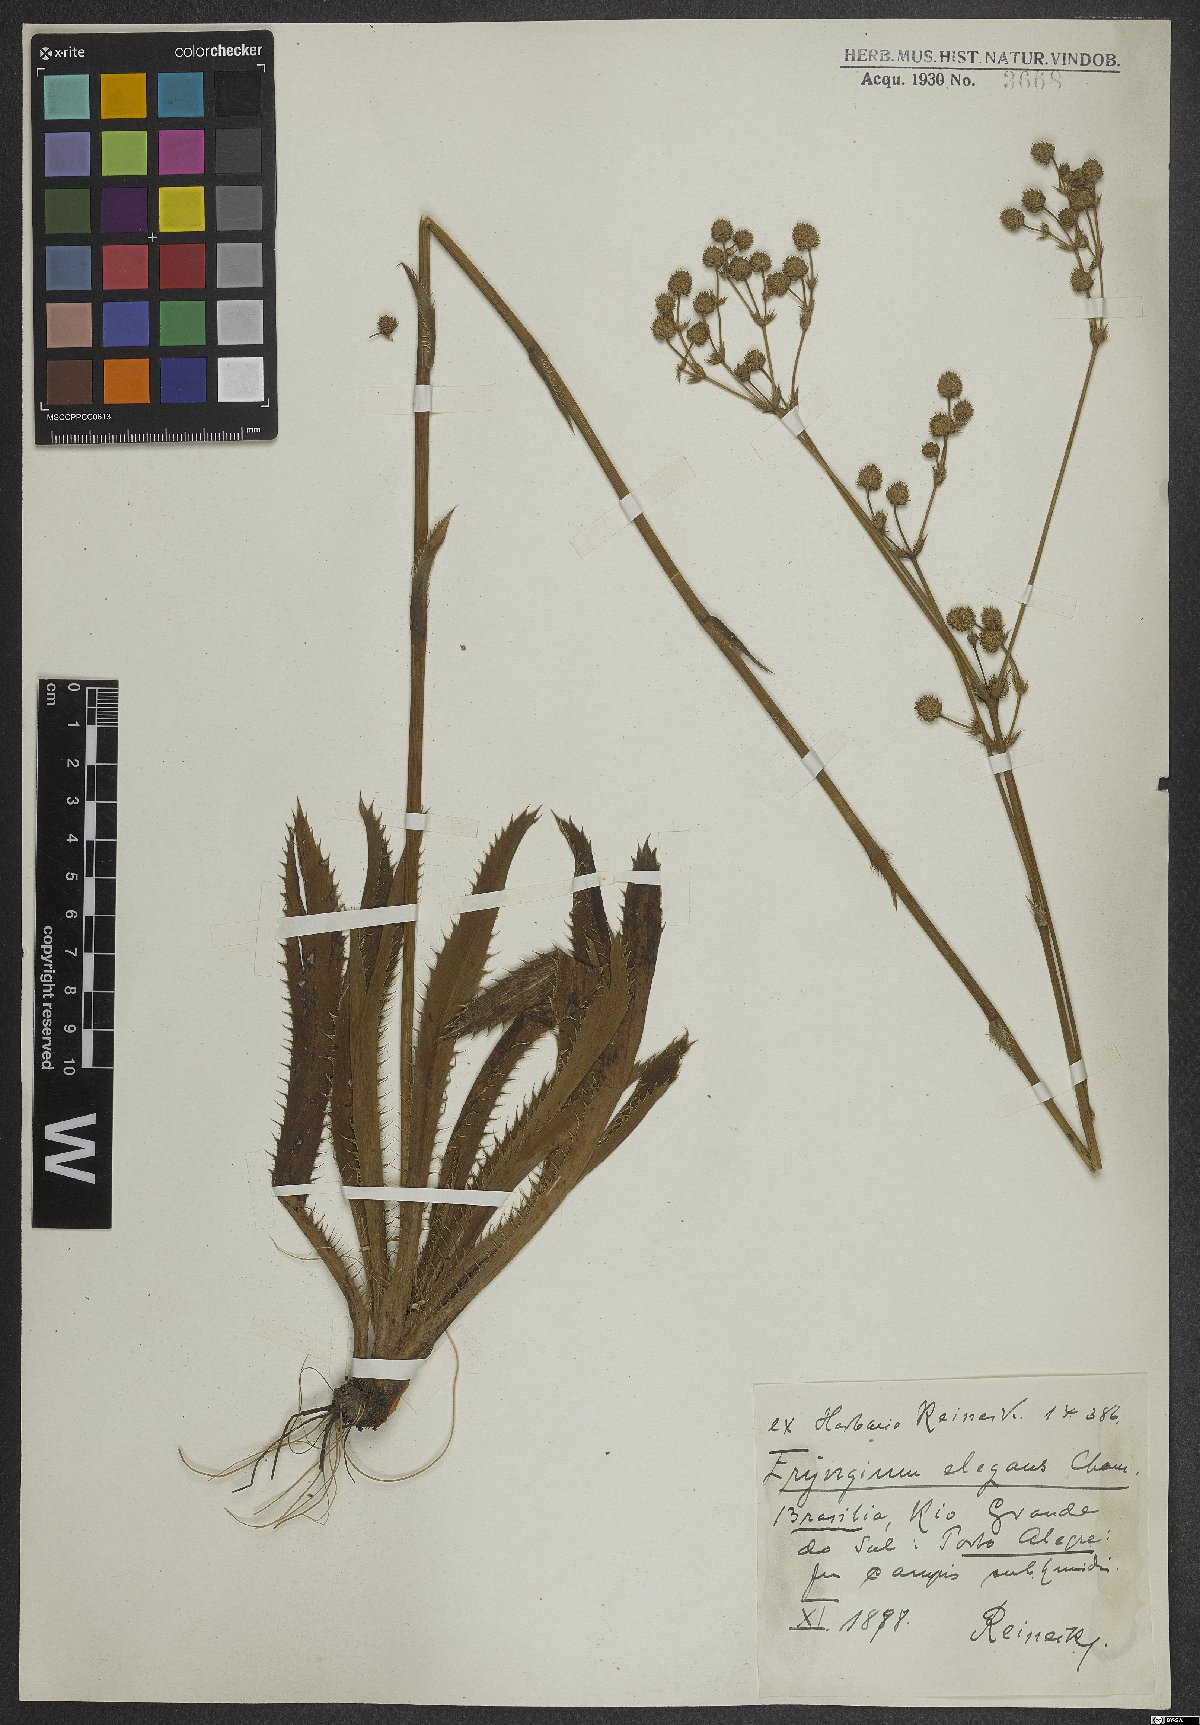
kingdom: Plantae
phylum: Tracheophyta
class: Magnoliopsida
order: Apiales
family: Apiaceae
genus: Eryngium
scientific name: Eryngium elegans
